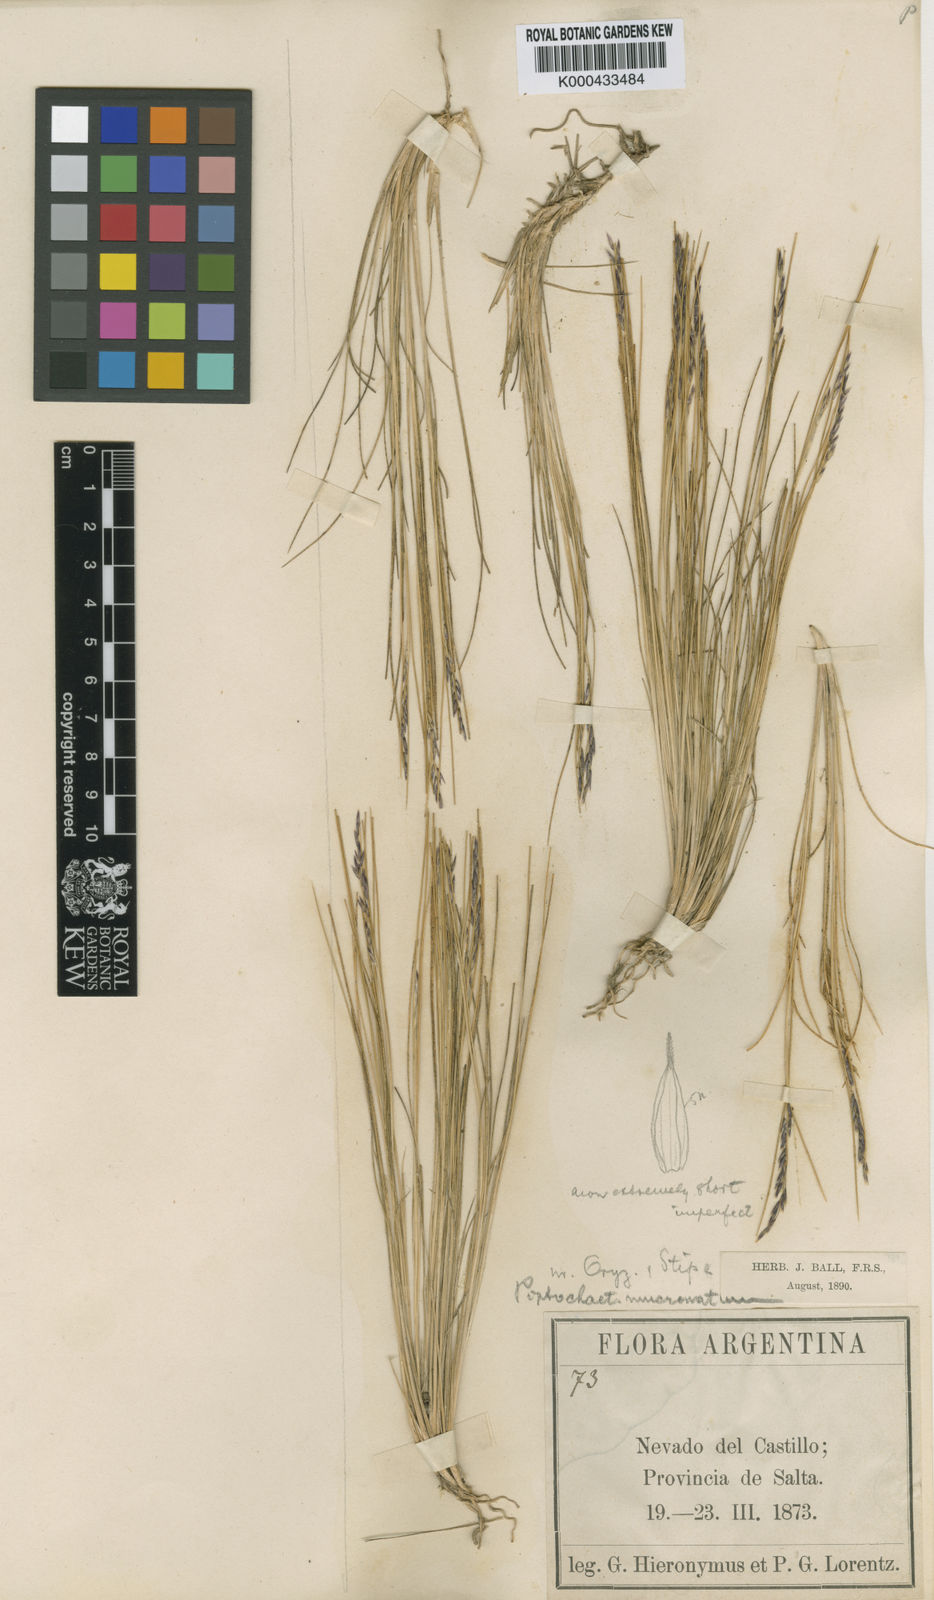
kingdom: Plantae
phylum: Tracheophyta
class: Liliopsida
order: Poales
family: Poaceae
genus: Stipa
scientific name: Stipa
